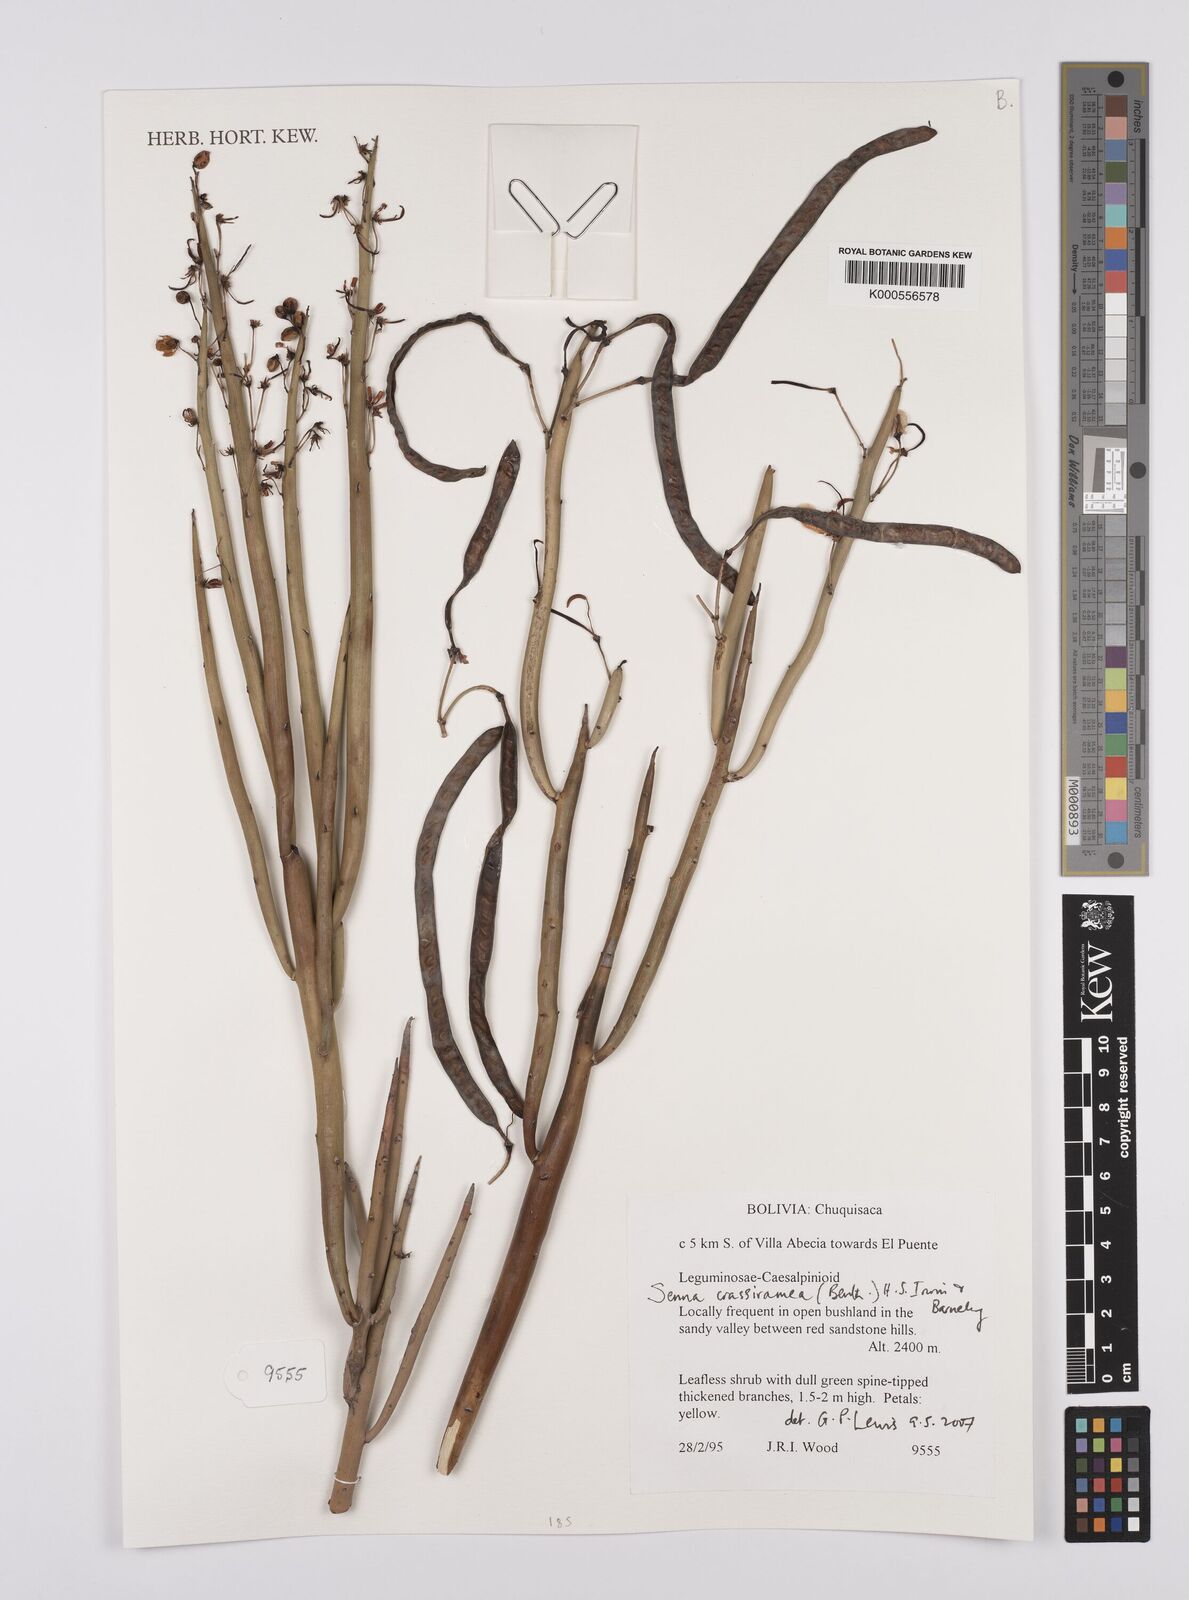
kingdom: Plantae
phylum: Tracheophyta
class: Magnoliopsida
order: Fabales
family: Fabaceae
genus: Senna
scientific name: Senna crassiramea
